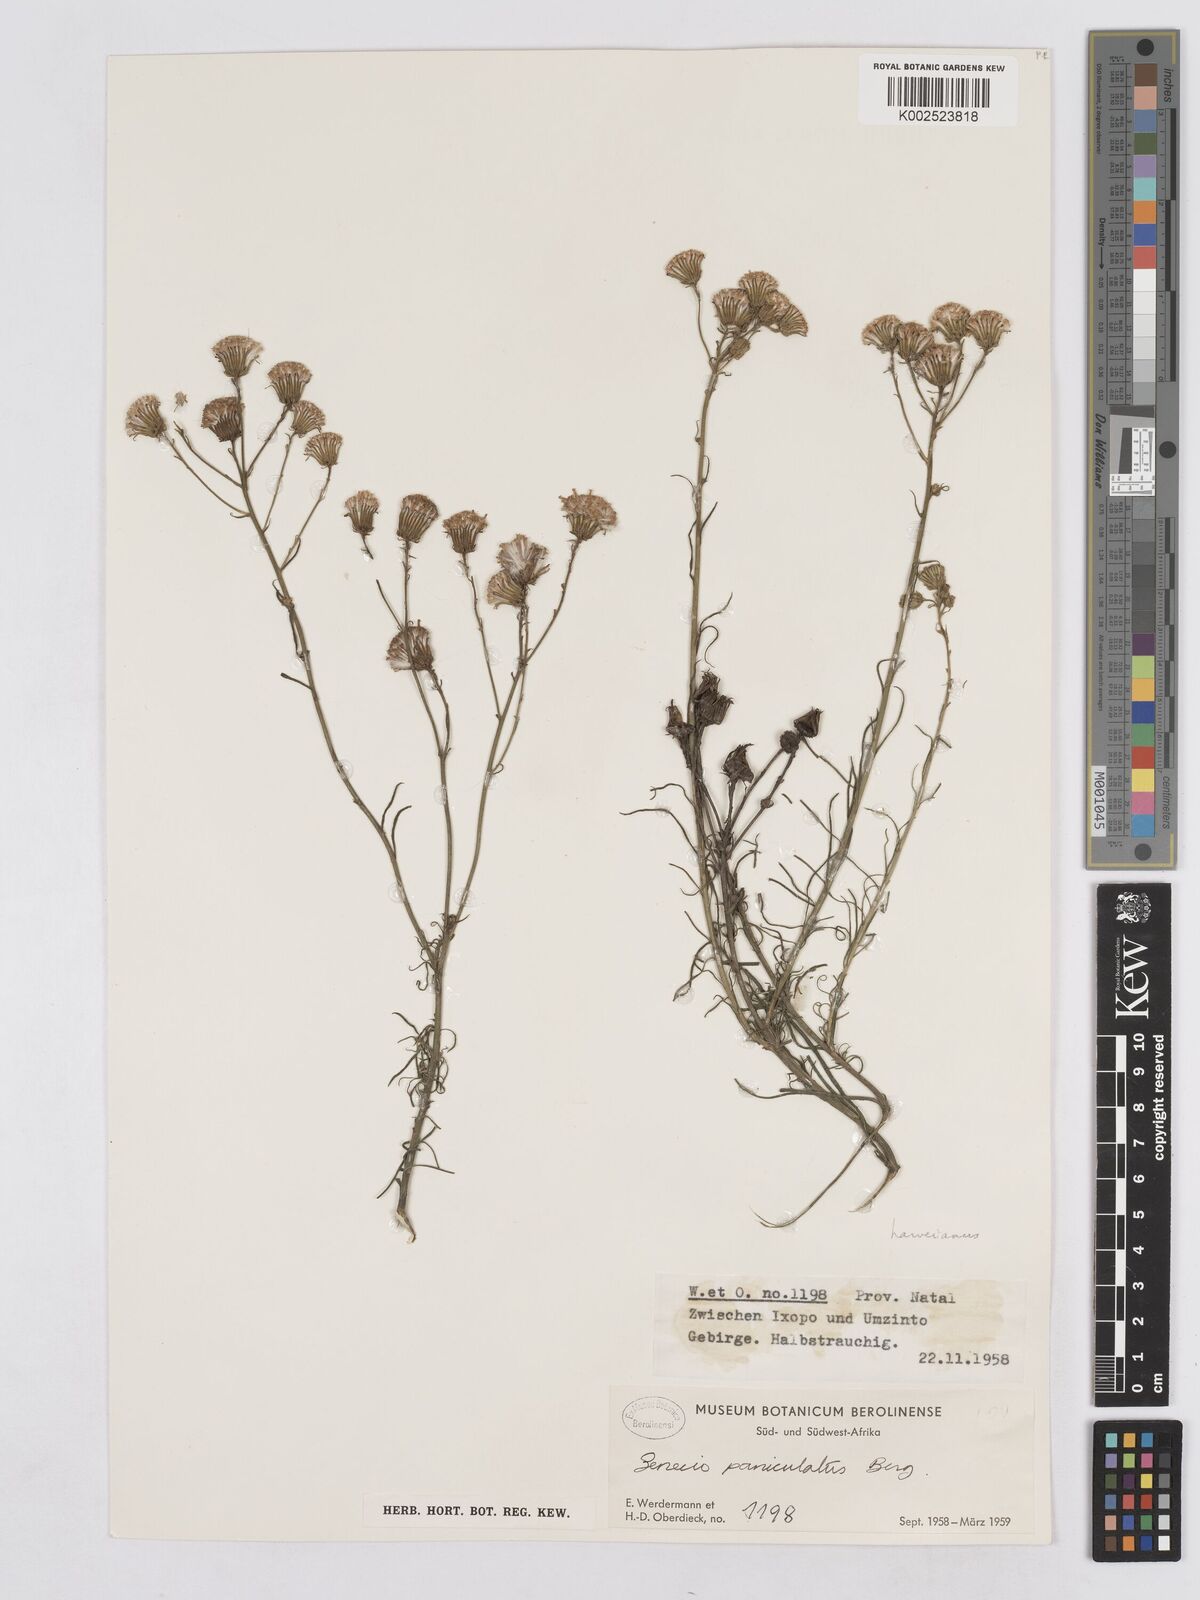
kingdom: Plantae
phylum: Tracheophyta
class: Magnoliopsida
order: Asterales
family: Asteraceae
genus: Senecio
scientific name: Senecio harveyanus
